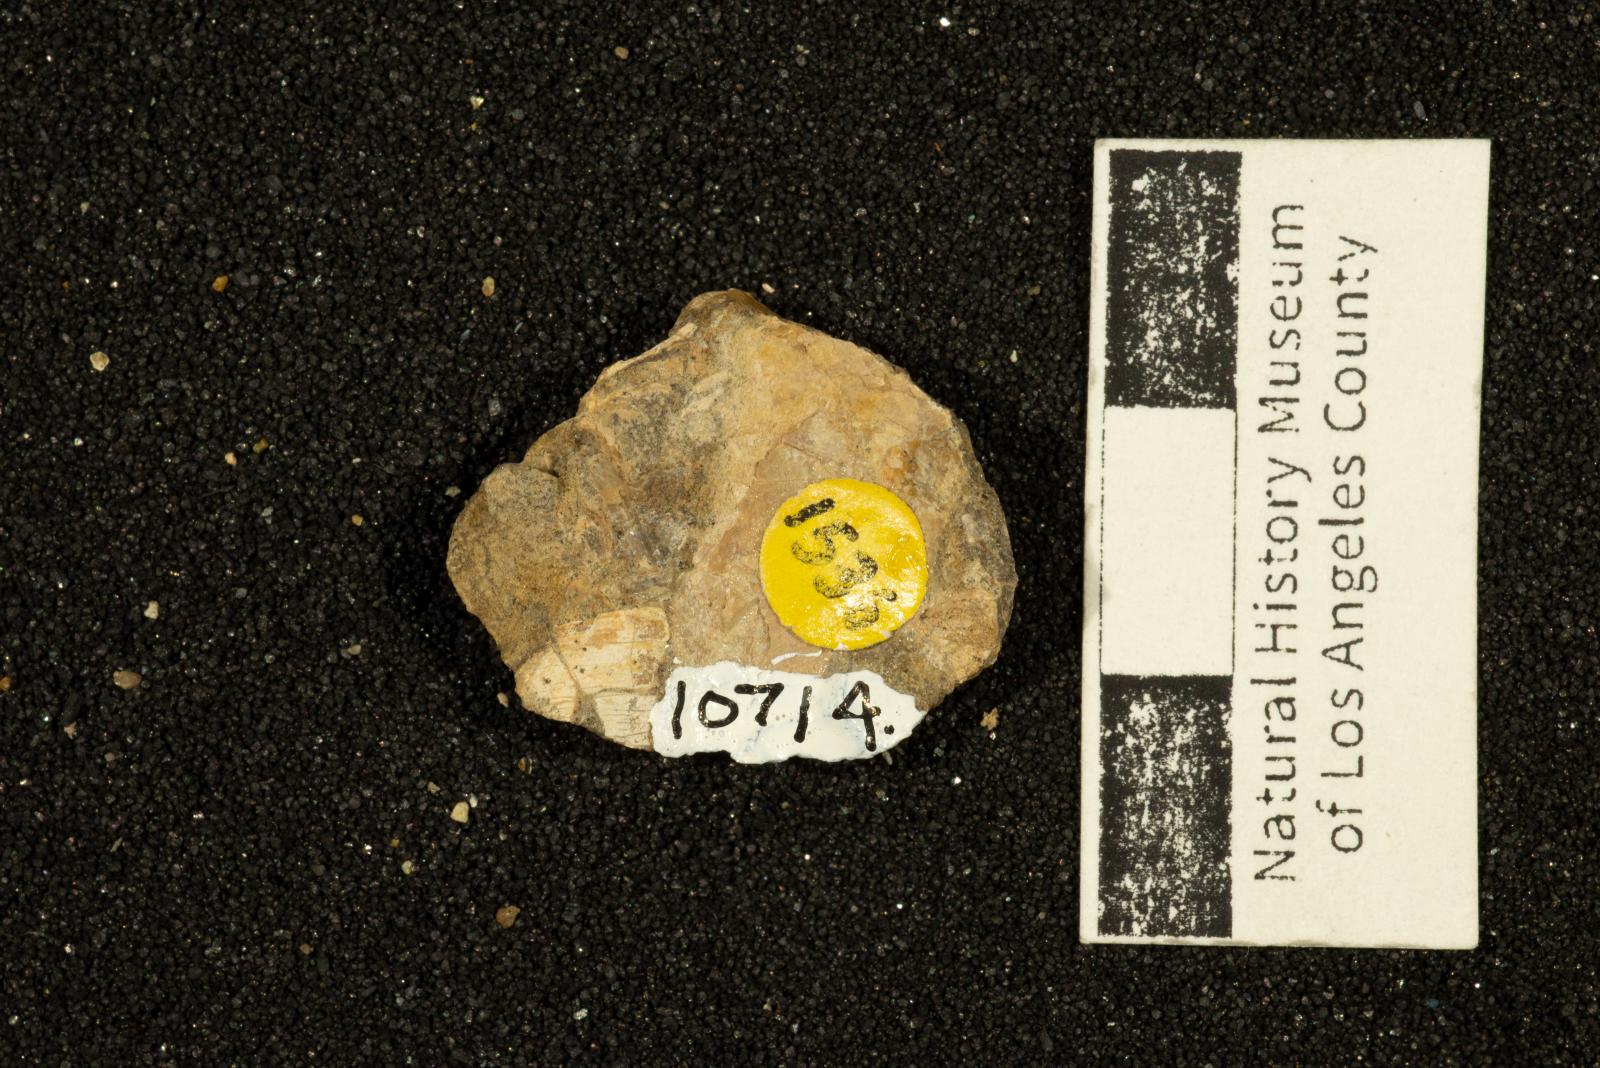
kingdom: Animalia
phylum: Mollusca
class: Bivalvia
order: Carditida
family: Crassatellidae
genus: Crassinella
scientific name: Crassinella
